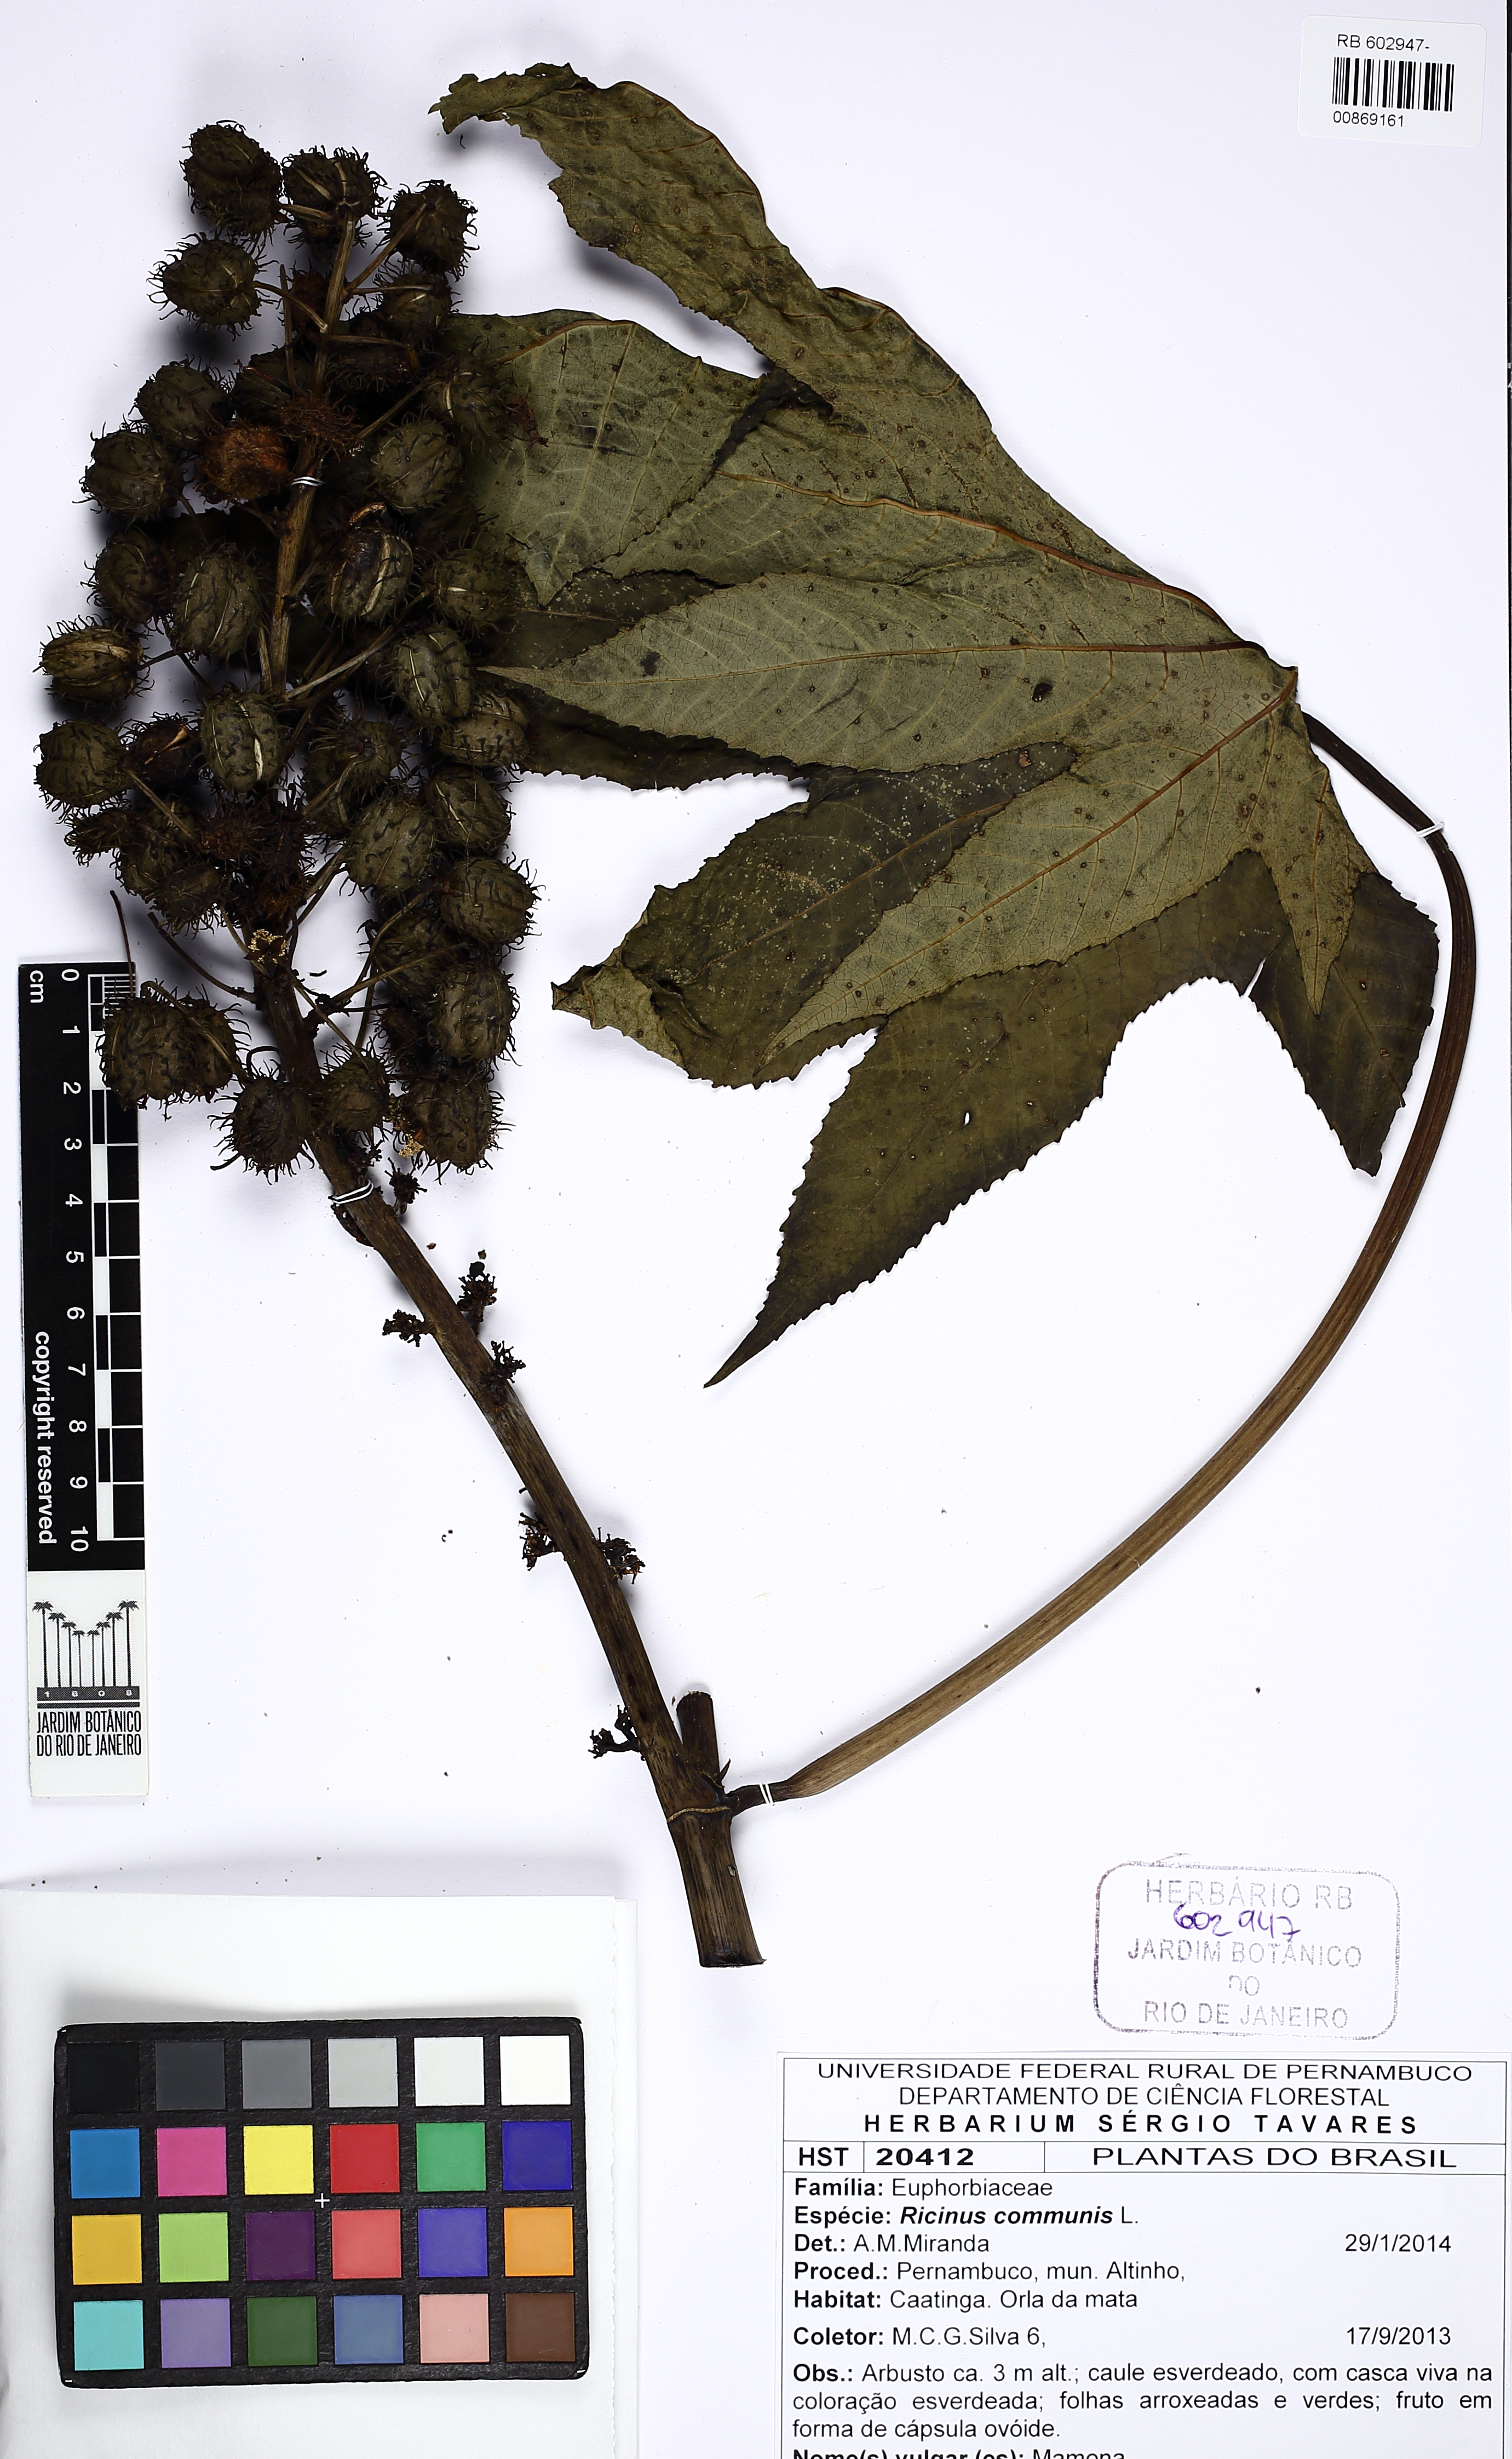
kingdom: Plantae
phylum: Tracheophyta
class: Magnoliopsida
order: Malpighiales
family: Euphorbiaceae
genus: Ricinus
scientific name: Ricinus communis
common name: Castor-oil-plant
